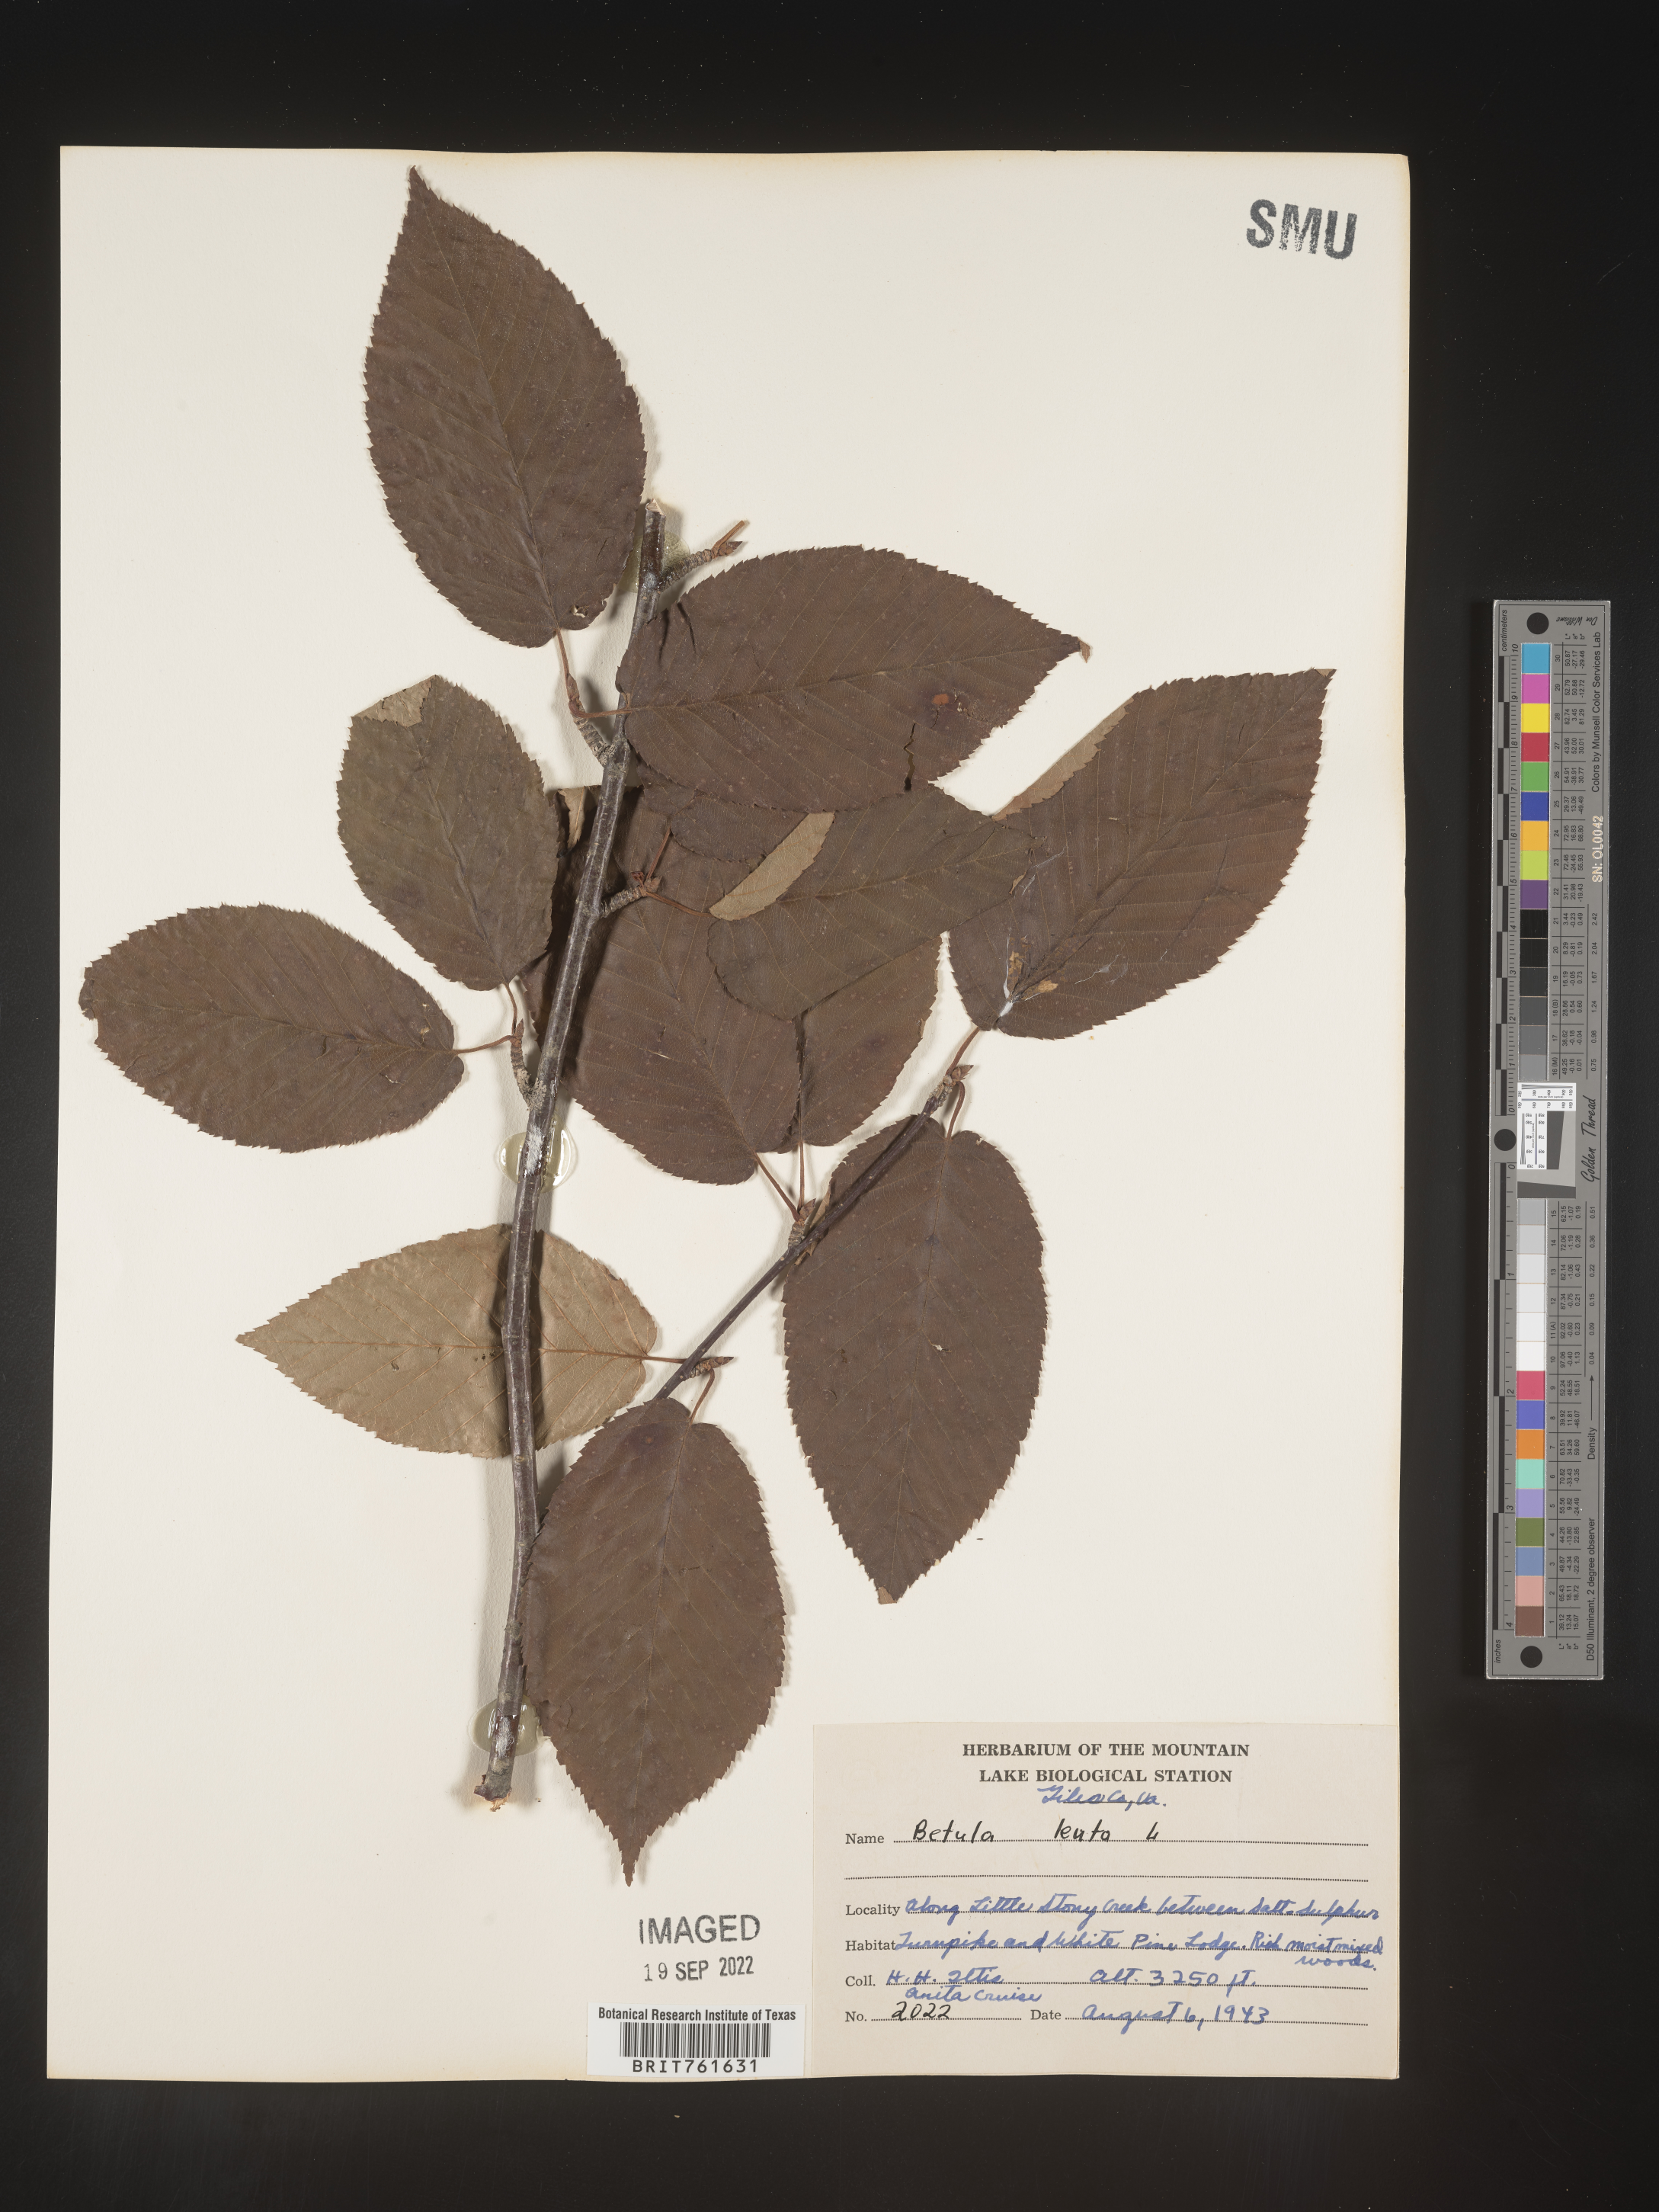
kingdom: Plantae
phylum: Tracheophyta
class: Magnoliopsida
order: Fagales
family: Betulaceae
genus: Betula
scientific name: Betula lenta
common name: Black birch
